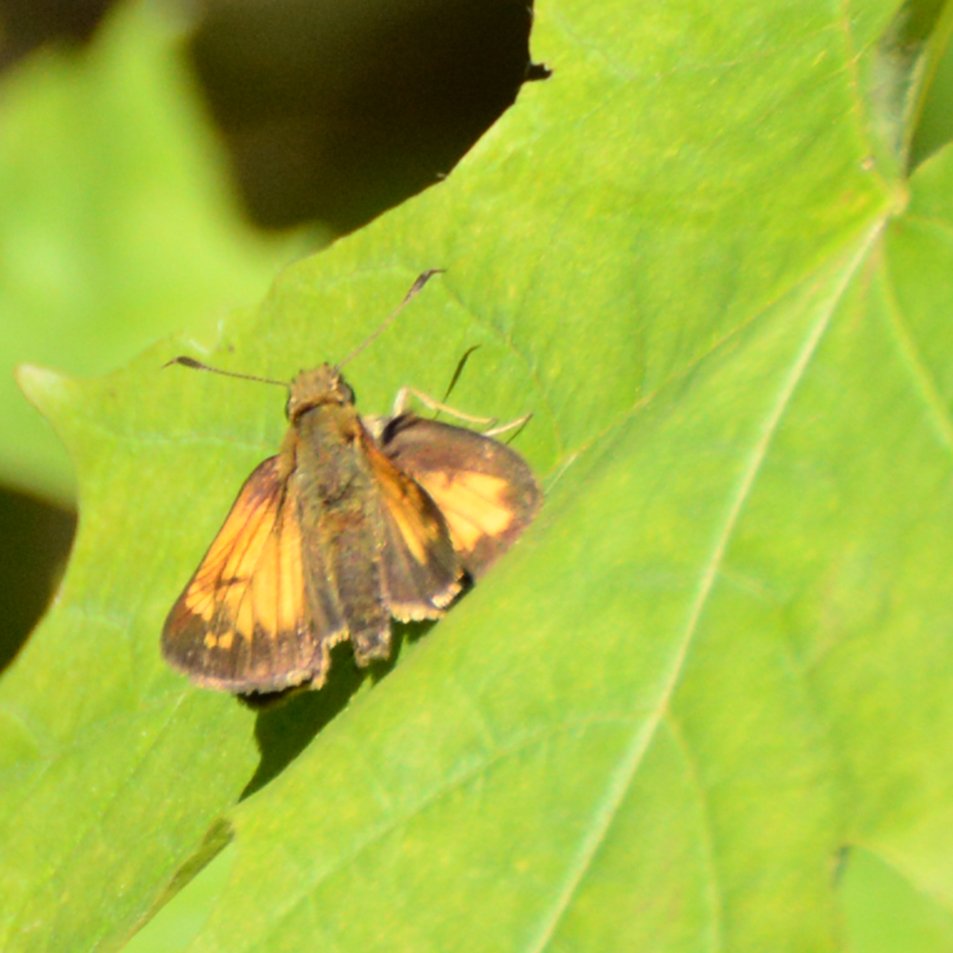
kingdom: Animalia
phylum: Arthropoda
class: Insecta
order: Lepidoptera
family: Hesperiidae
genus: Lon
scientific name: Lon hobomok
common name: Hobomok Skipper
